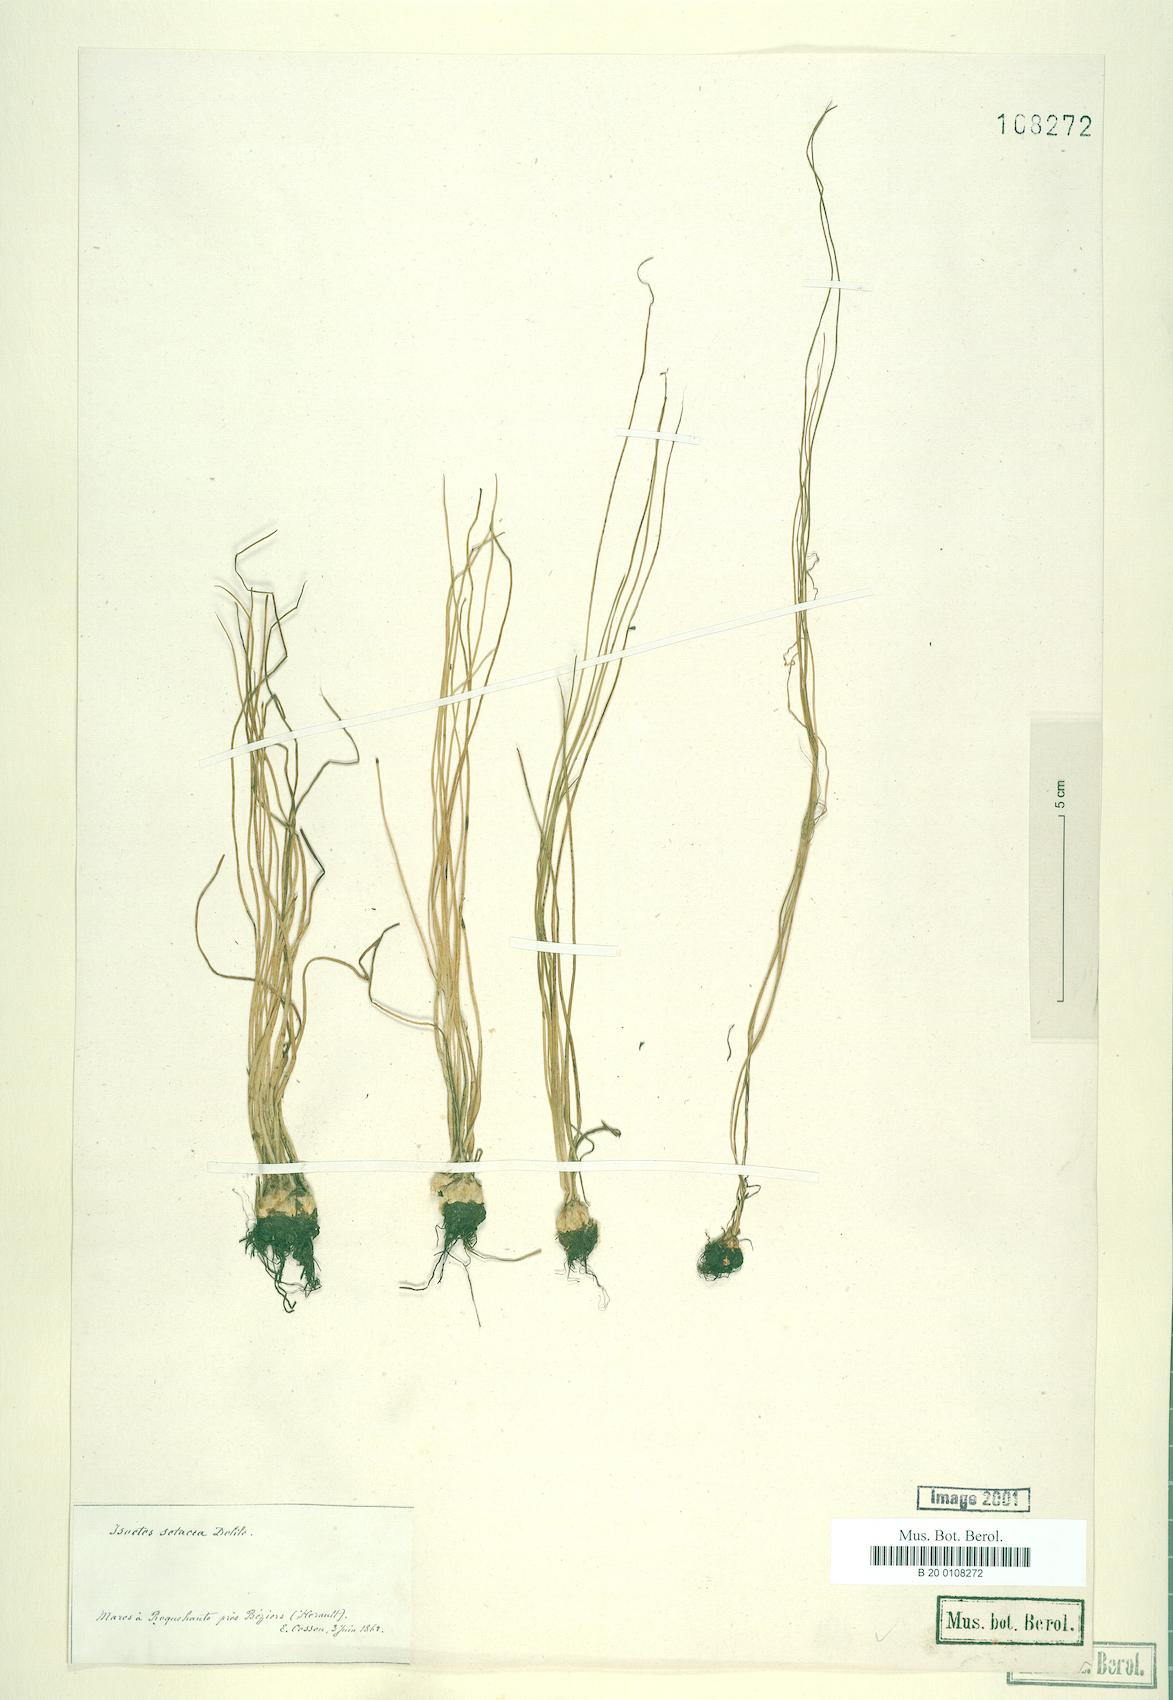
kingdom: Plantae
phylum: Tracheophyta
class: Lycopodiopsida
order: Isoetales
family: Isoetaceae
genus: Isoetes
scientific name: Isoetes lacustris
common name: Common quillwort
